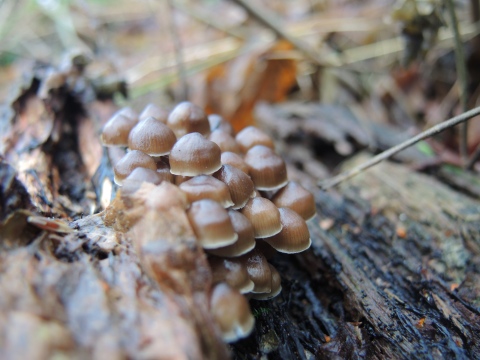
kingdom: Fungi
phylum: Basidiomycota
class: Agaricomycetes
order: Agaricales
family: Mycenaceae
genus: Mycena
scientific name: Mycena tintinnabulum
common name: vinter-huesvamp
